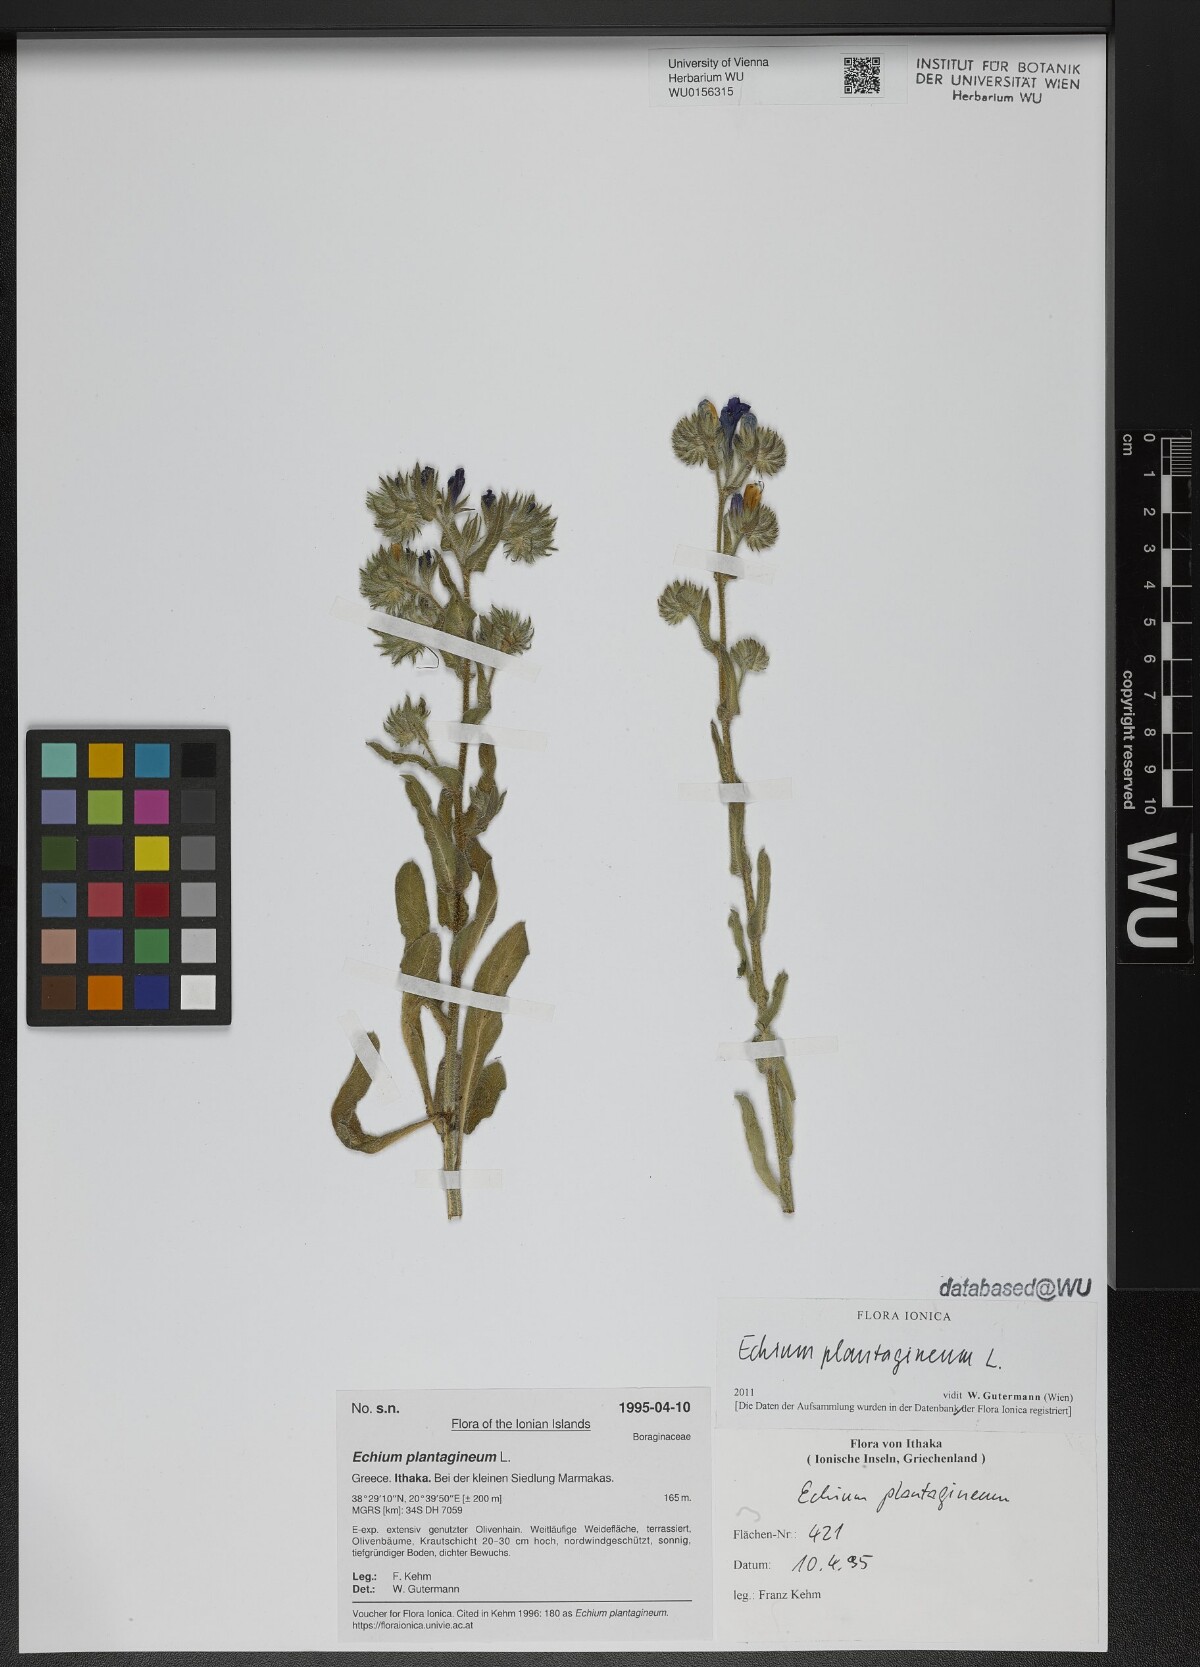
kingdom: Plantae
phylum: Tracheophyta
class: Magnoliopsida
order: Boraginales
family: Boraginaceae
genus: Echium
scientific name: Echium plantagineum
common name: Purple viper's-bugloss
